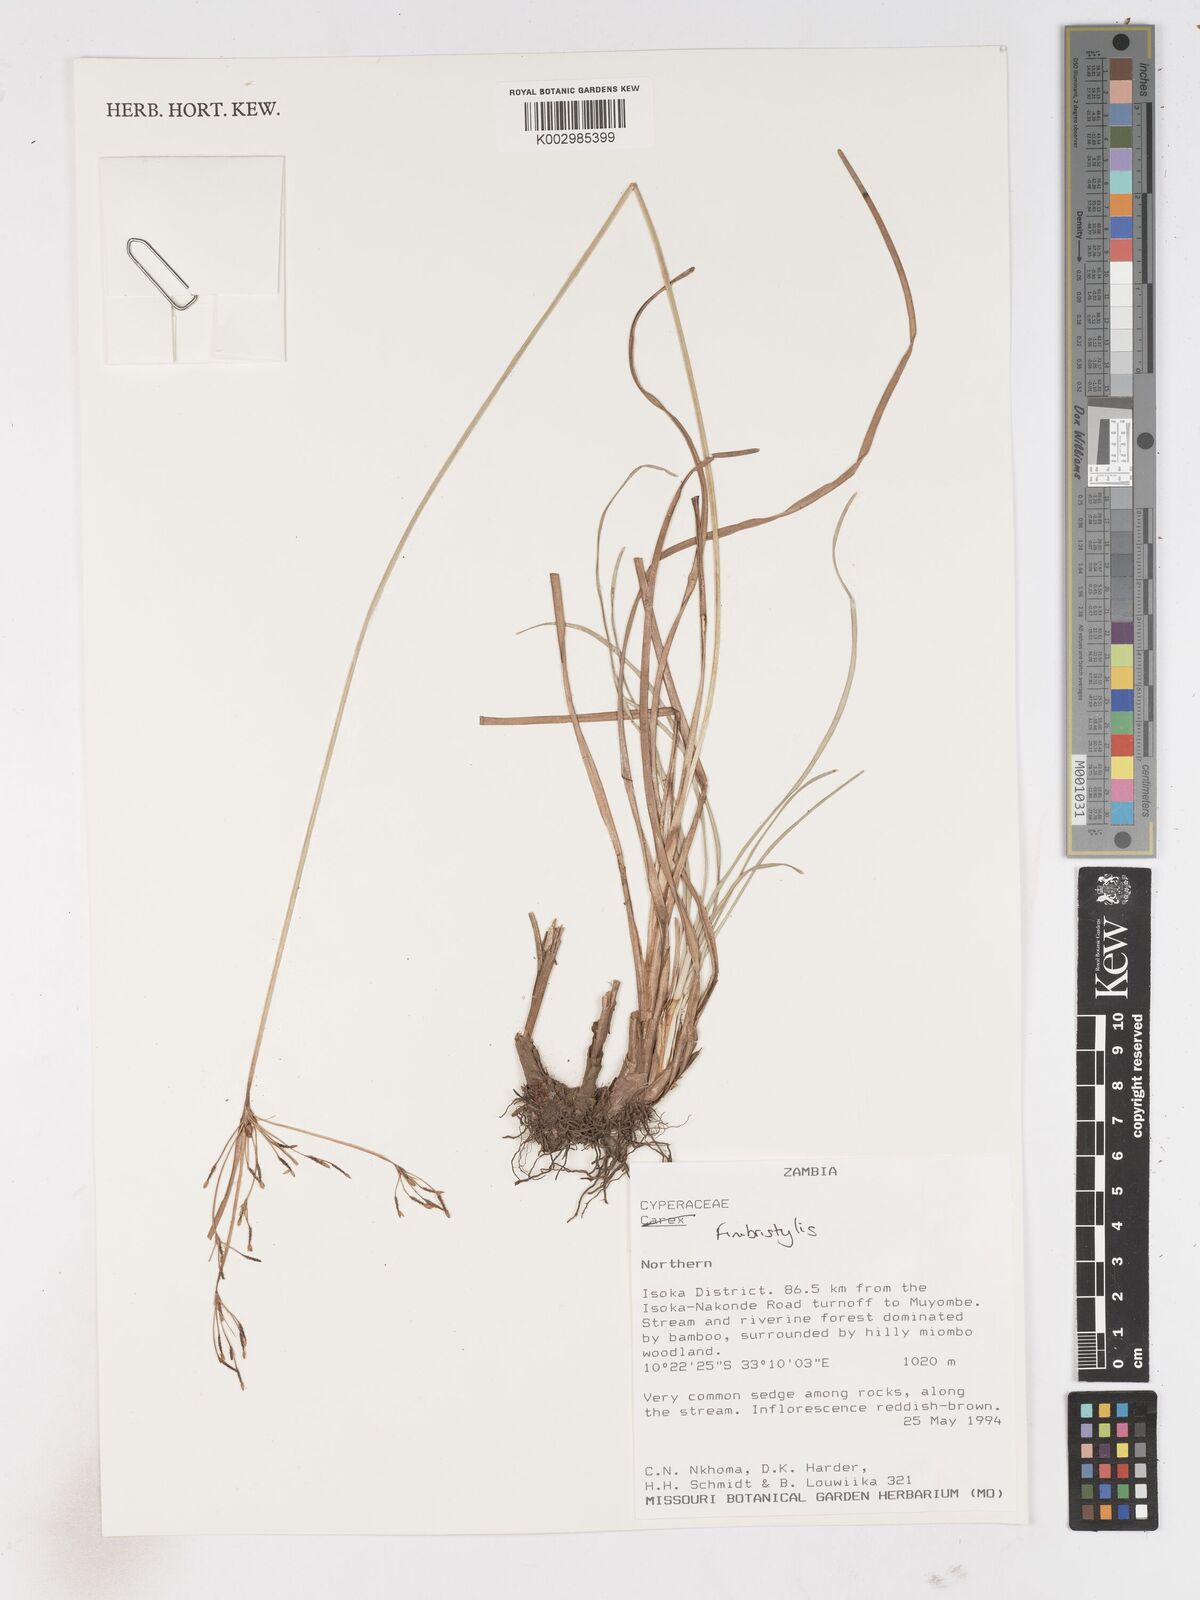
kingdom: Plantae
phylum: Tracheophyta
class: Liliopsida
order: Poales
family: Cyperaceae
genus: Fimbristylis
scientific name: Fimbristylis
